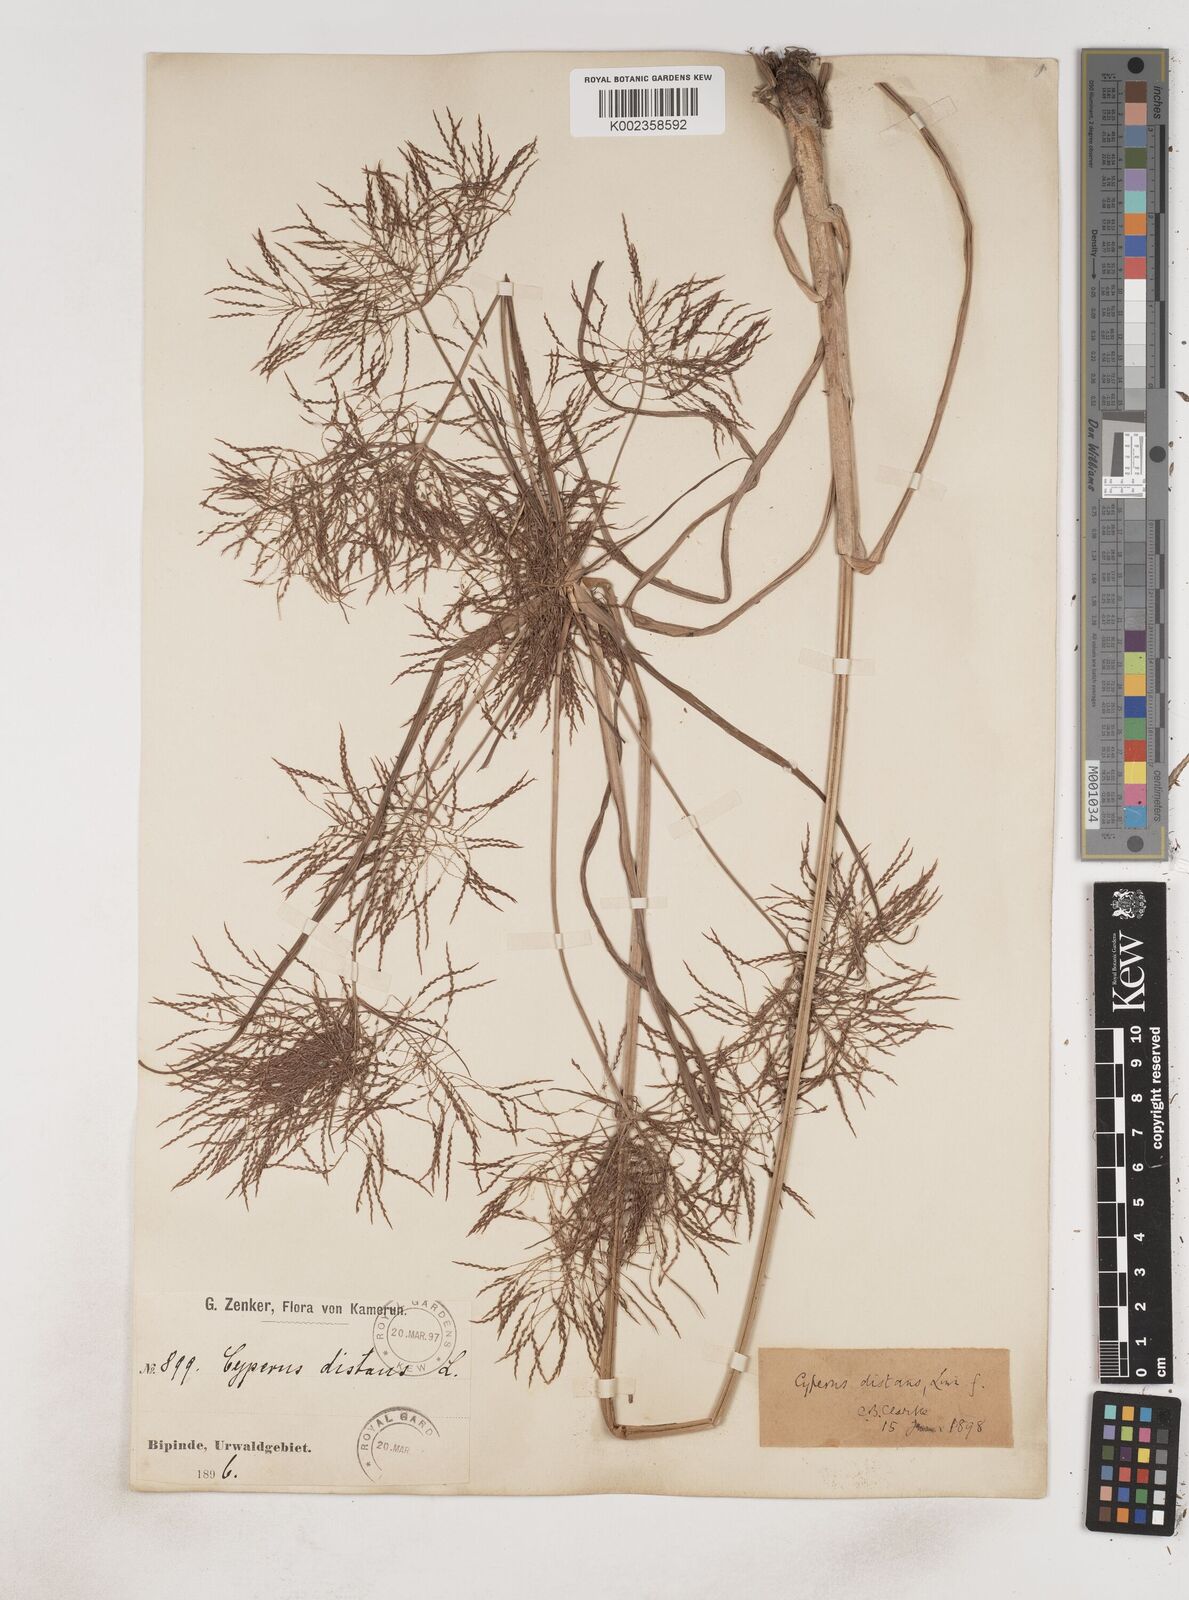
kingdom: Plantae
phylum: Tracheophyta
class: Liliopsida
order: Poales
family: Cyperaceae
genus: Cyperus
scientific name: Cyperus distans
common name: Slender cyperus
